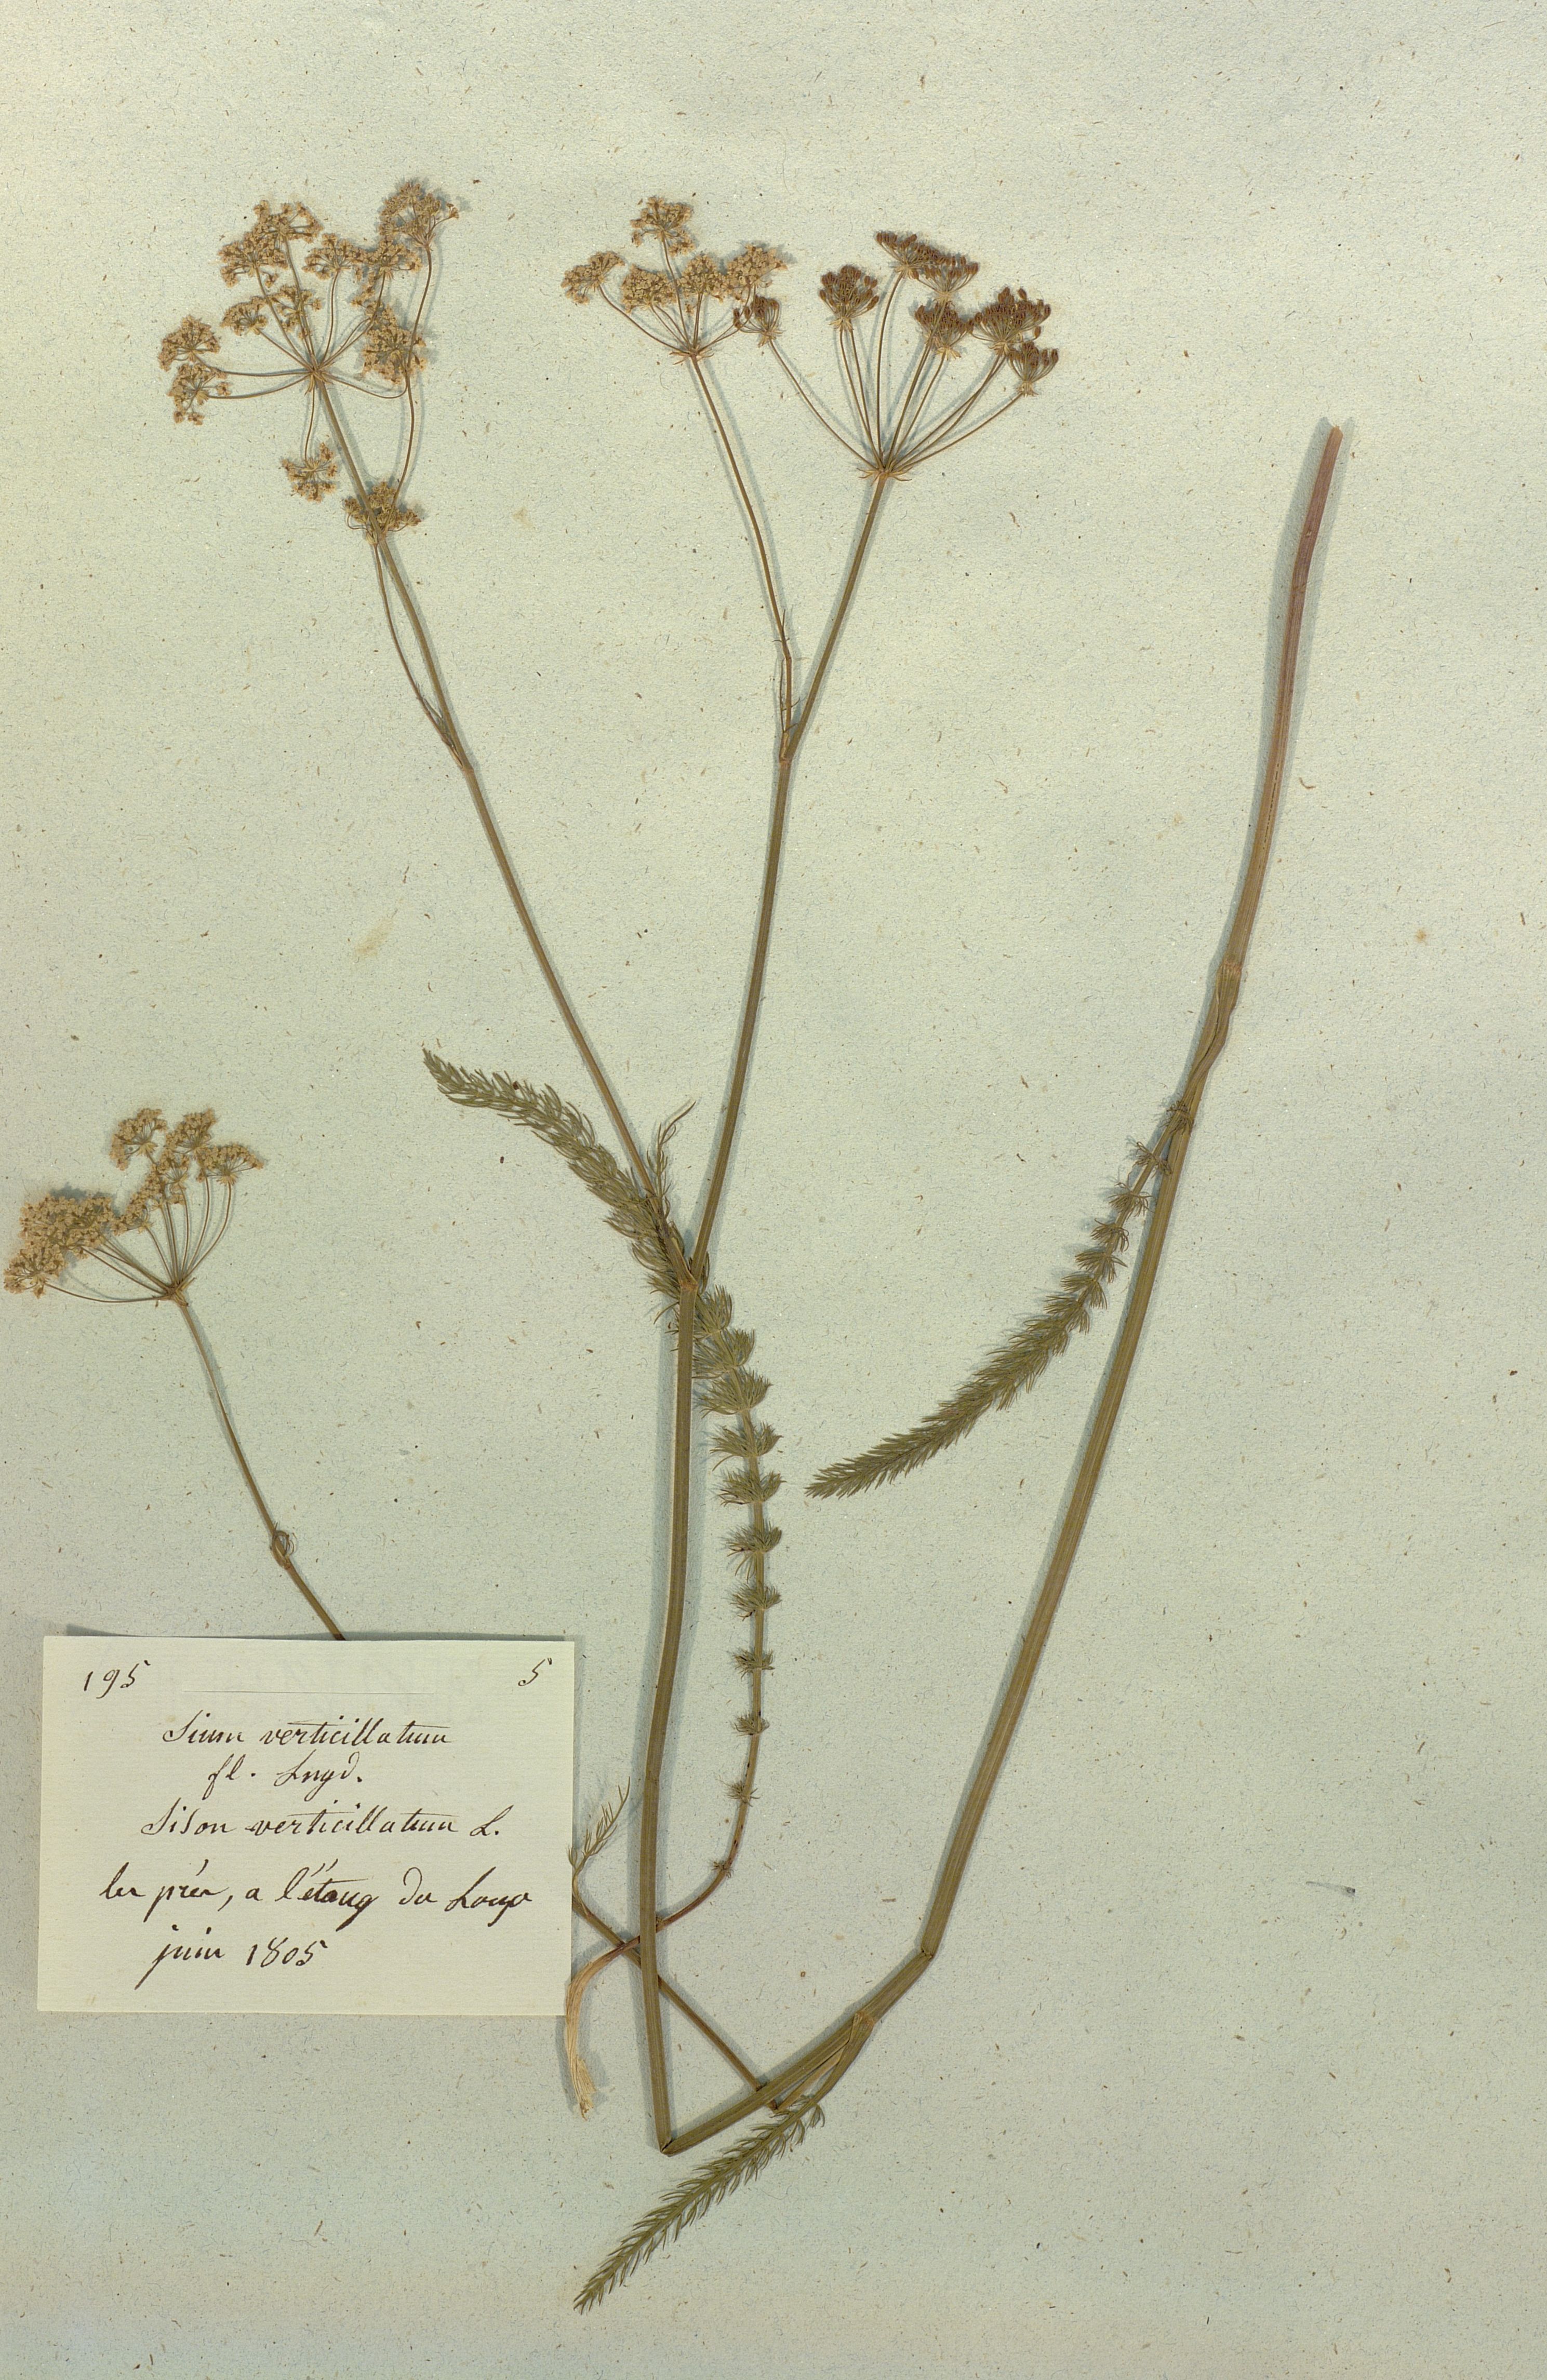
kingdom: Plantae
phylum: Tracheophyta
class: Magnoliopsida
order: Apiales
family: Apiaceae
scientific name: Apiaceae
